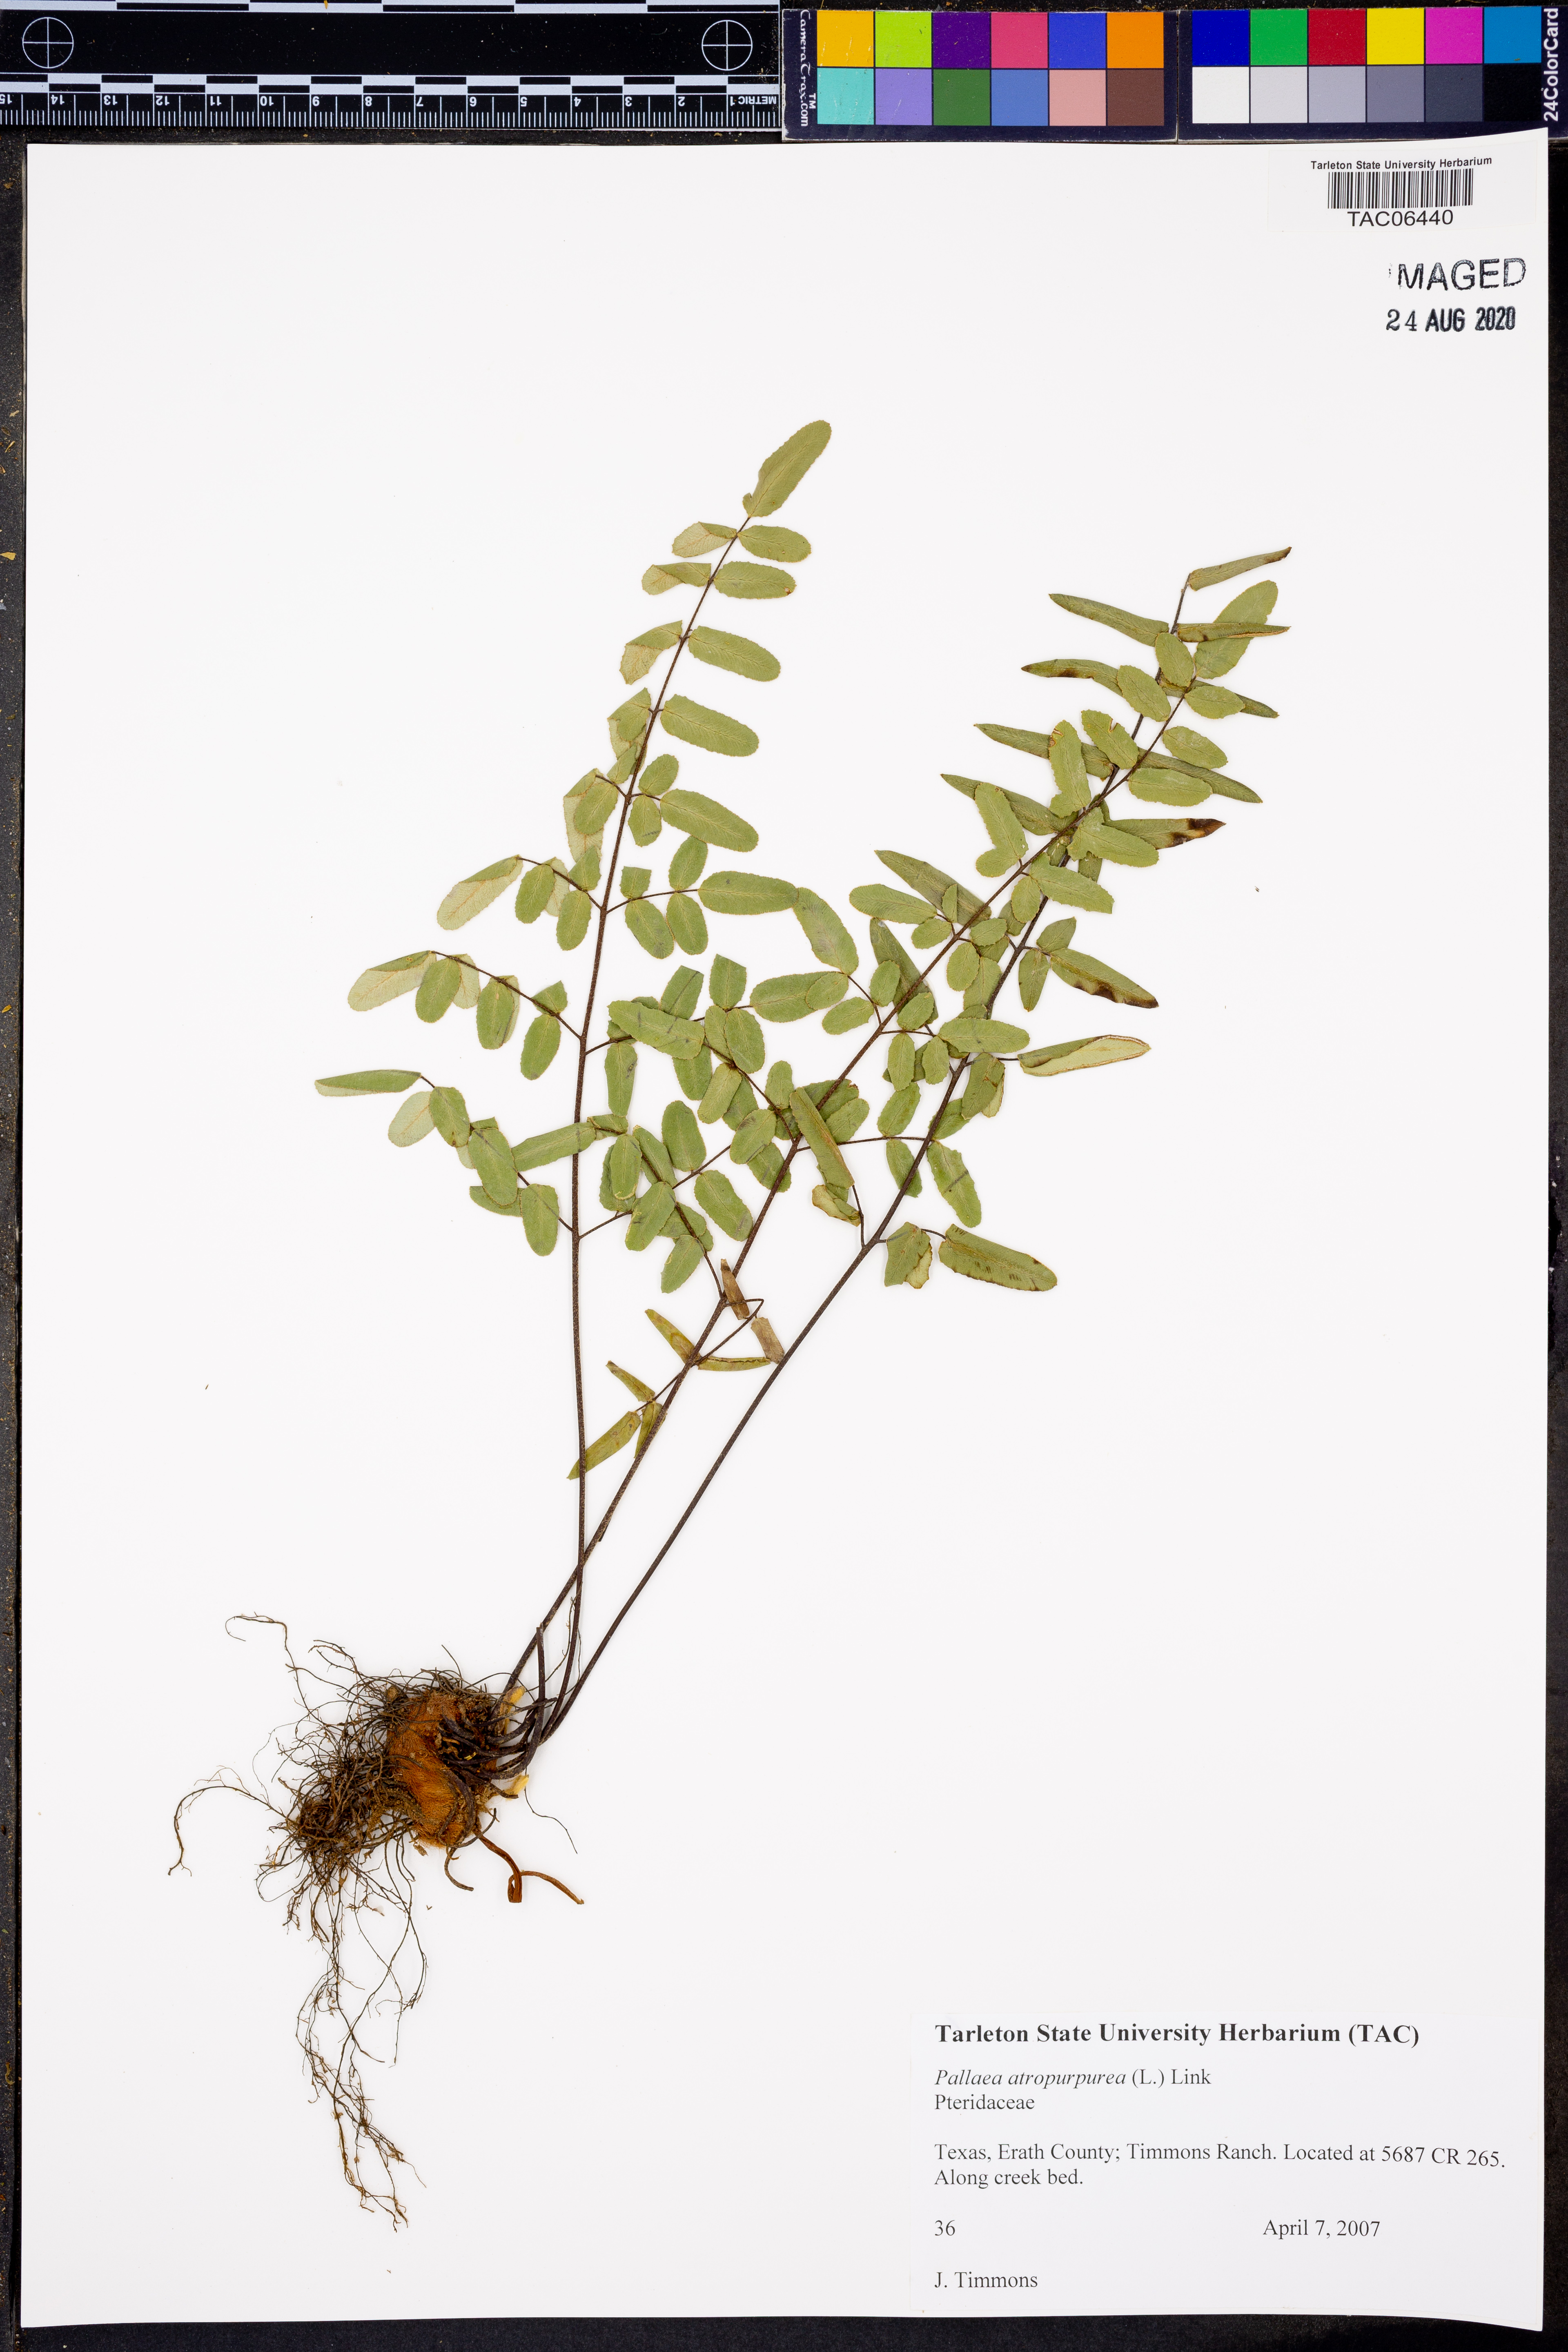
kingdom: Plantae
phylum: Tracheophyta
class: Polypodiopsida
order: Polypodiales
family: Pteridaceae
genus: Pellaea
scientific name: Pellaea atropurpurea
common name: Hairy cliffbrake
